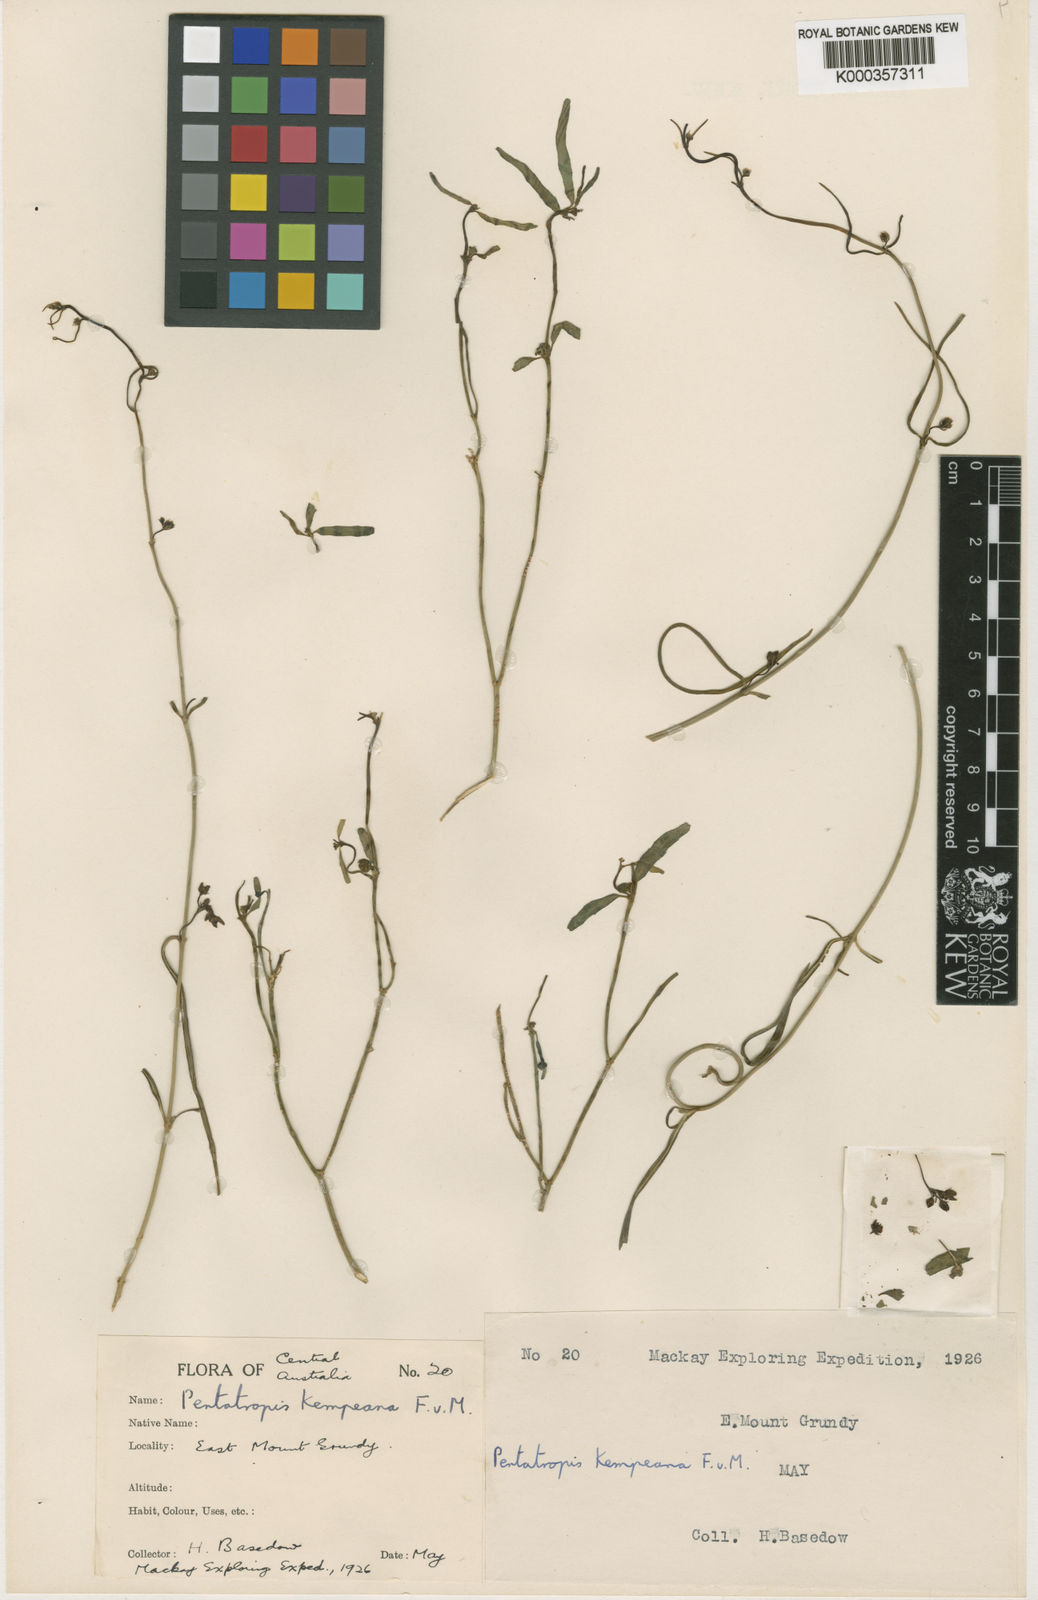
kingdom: Plantae
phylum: Tracheophyta
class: Magnoliopsida
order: Gentianales
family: Apocynaceae
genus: Vincetoxicum
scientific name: Vincetoxicum lineare
